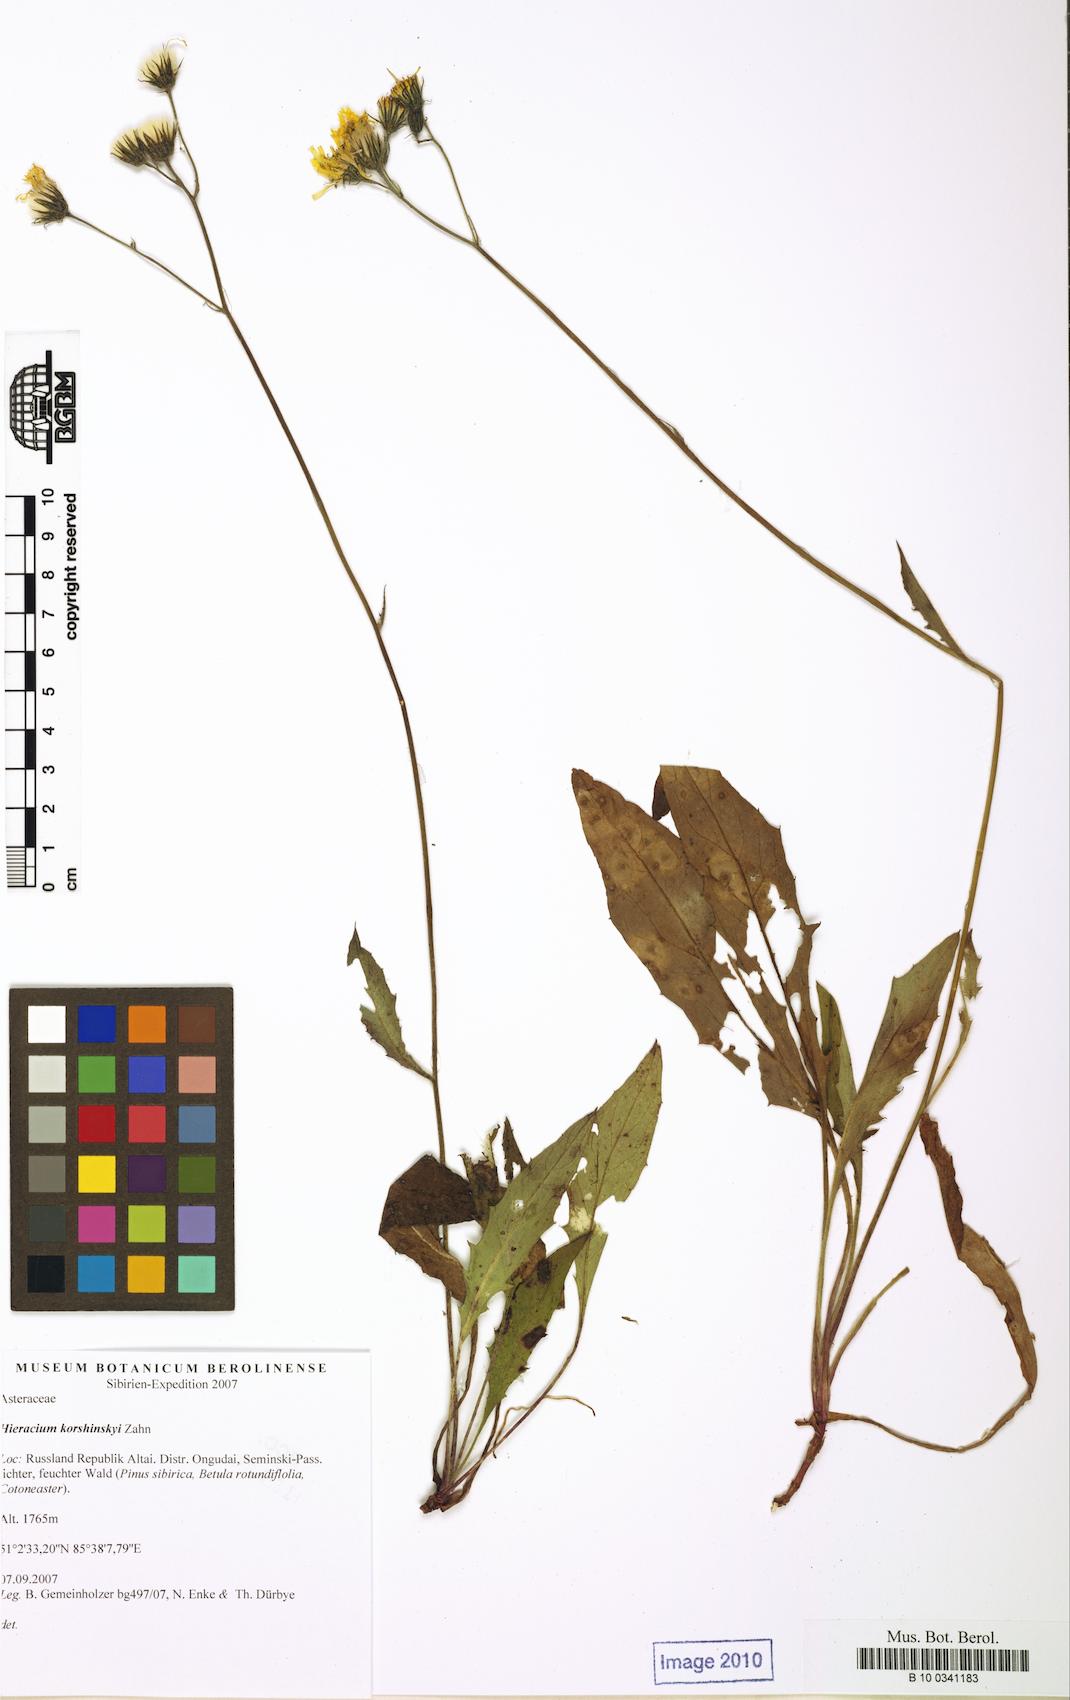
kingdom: Plantae
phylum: Tracheophyta
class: Magnoliopsida
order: Asterales
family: Asteraceae
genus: Hieracium
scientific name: Hieracium korshinskyi
